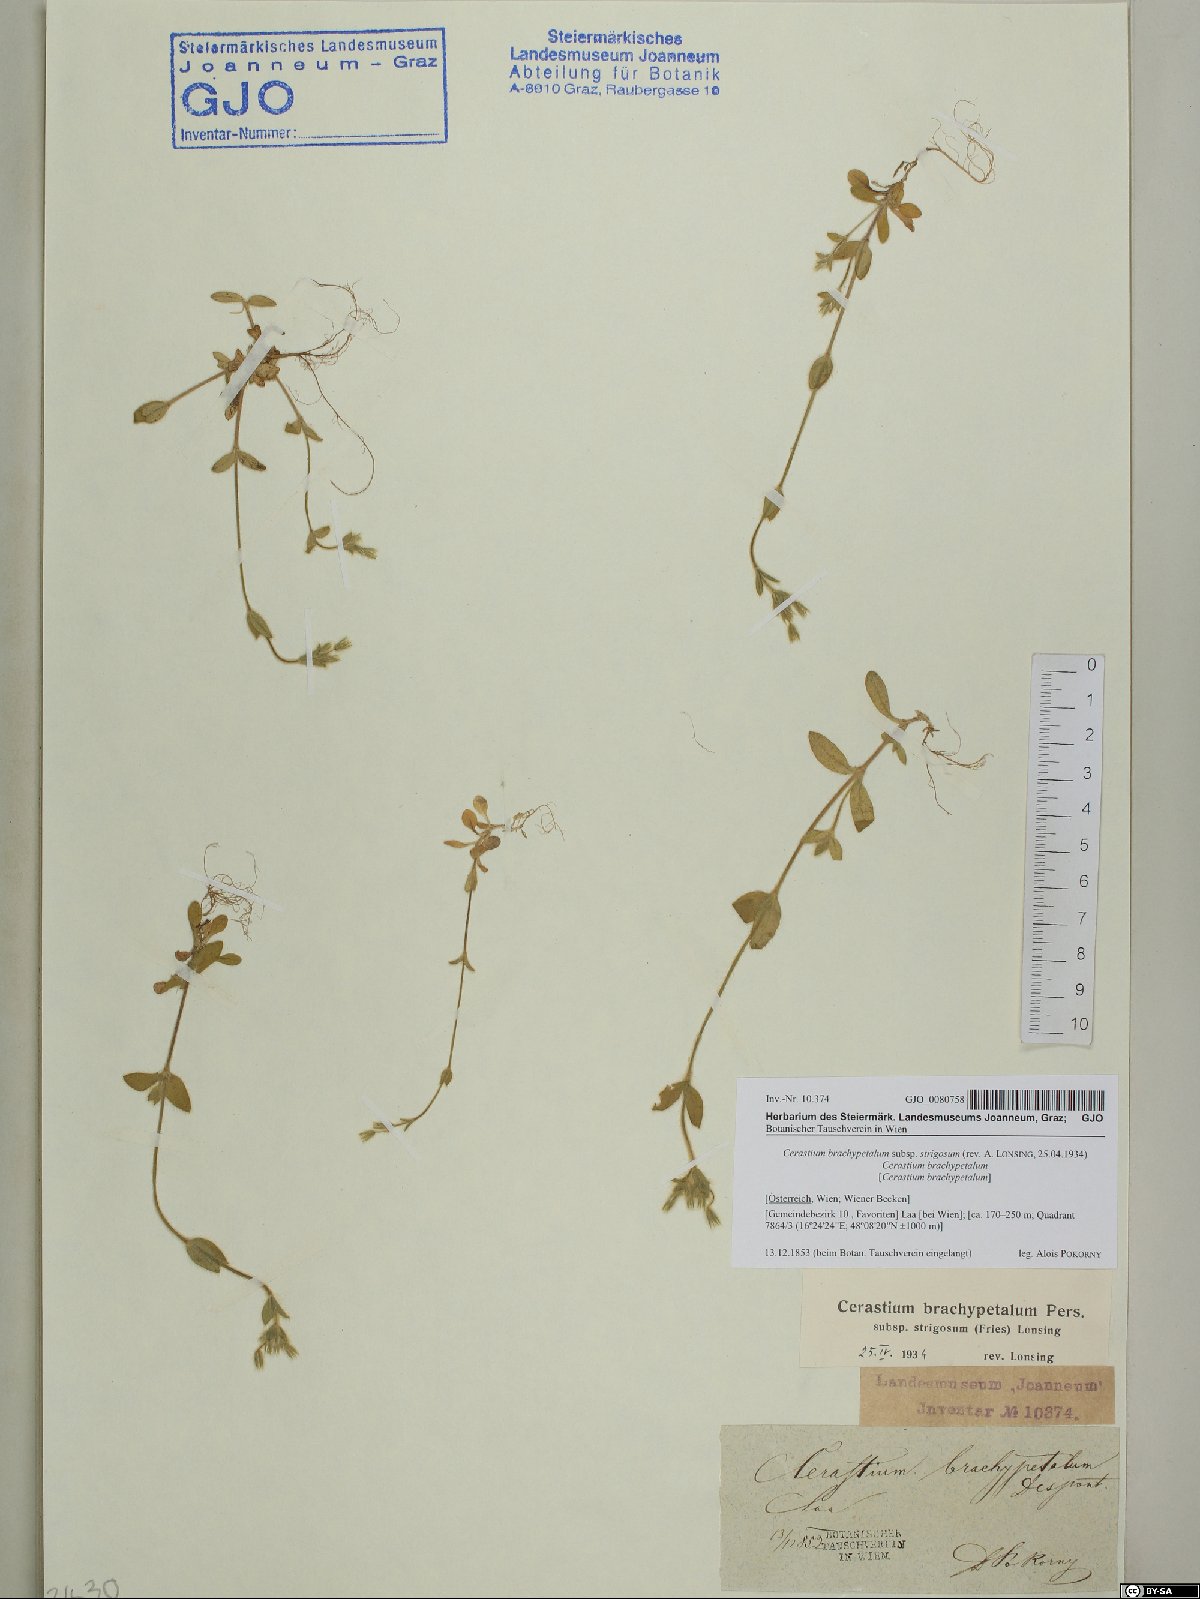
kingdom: Plantae
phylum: Tracheophyta
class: Magnoliopsida
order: Caryophyllales
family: Caryophyllaceae
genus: Cerastium
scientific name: Cerastium brachypetalum
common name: Grey mouse-ear
